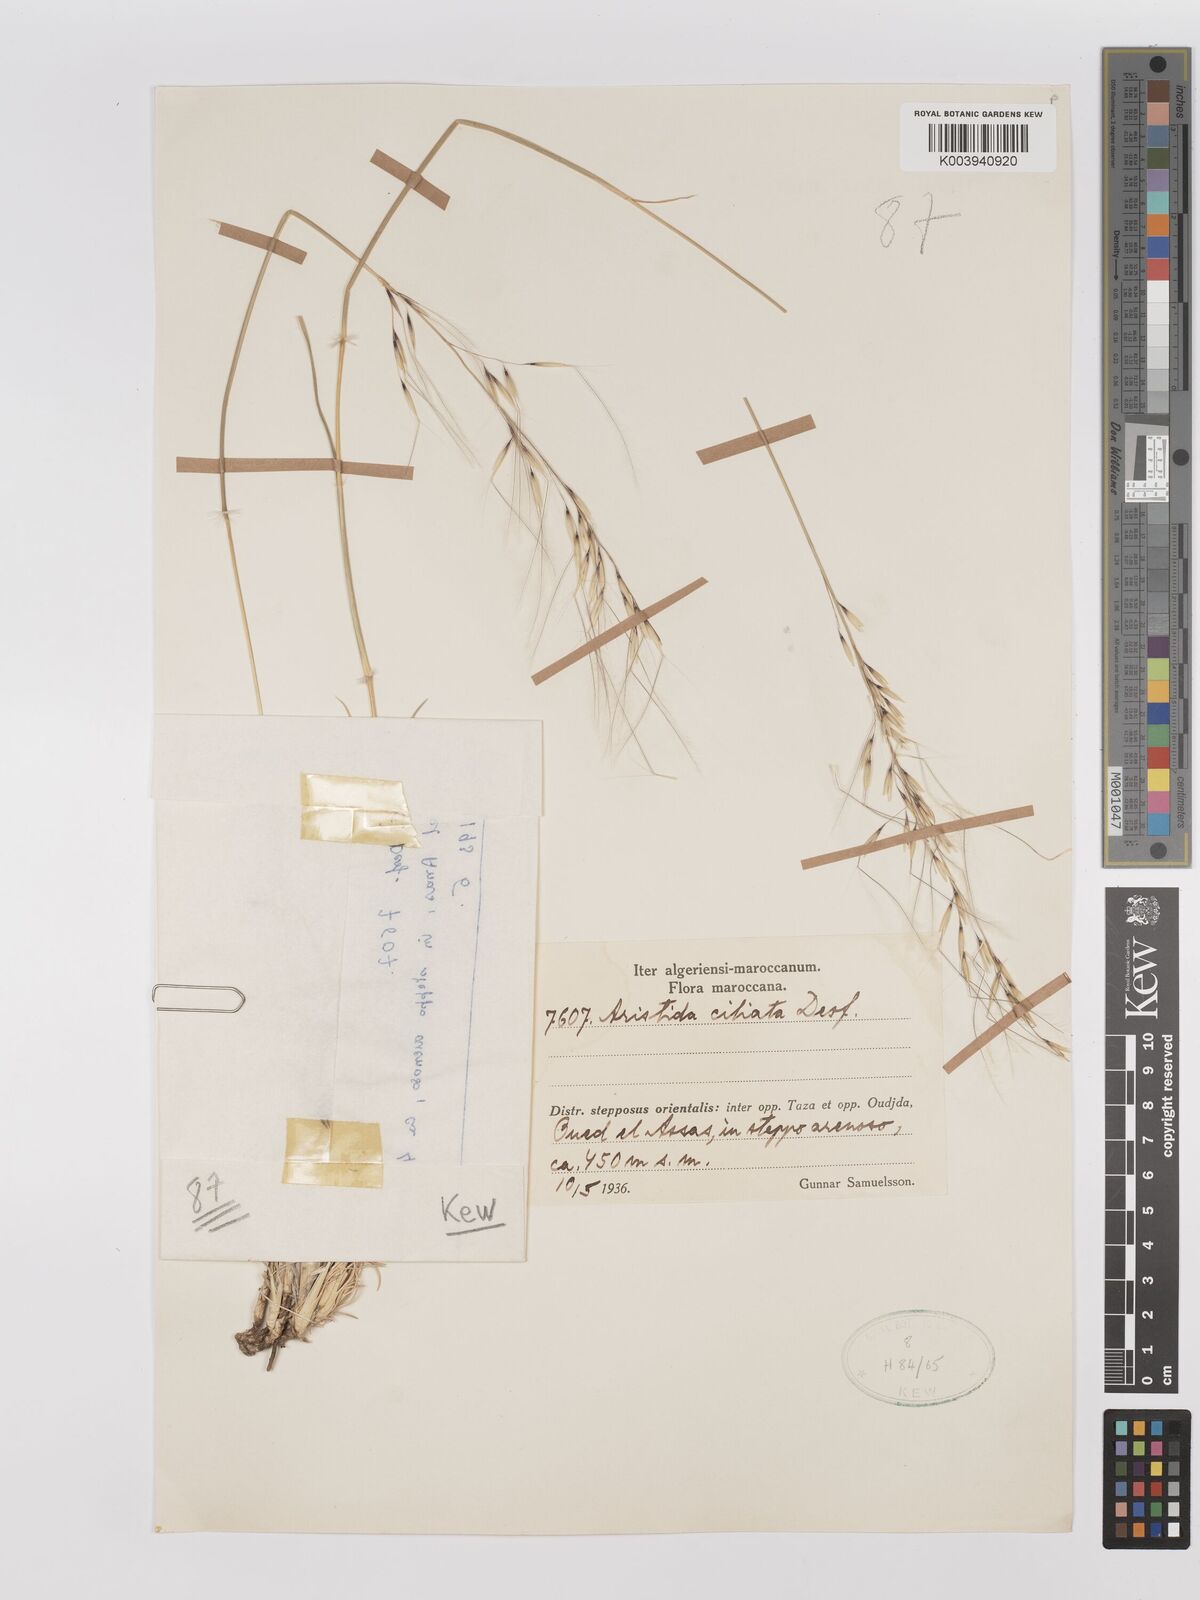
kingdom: Plantae
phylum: Tracheophyta
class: Liliopsida
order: Poales
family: Poaceae
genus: Stipagrostis
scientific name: Stipagrostis ciliata
